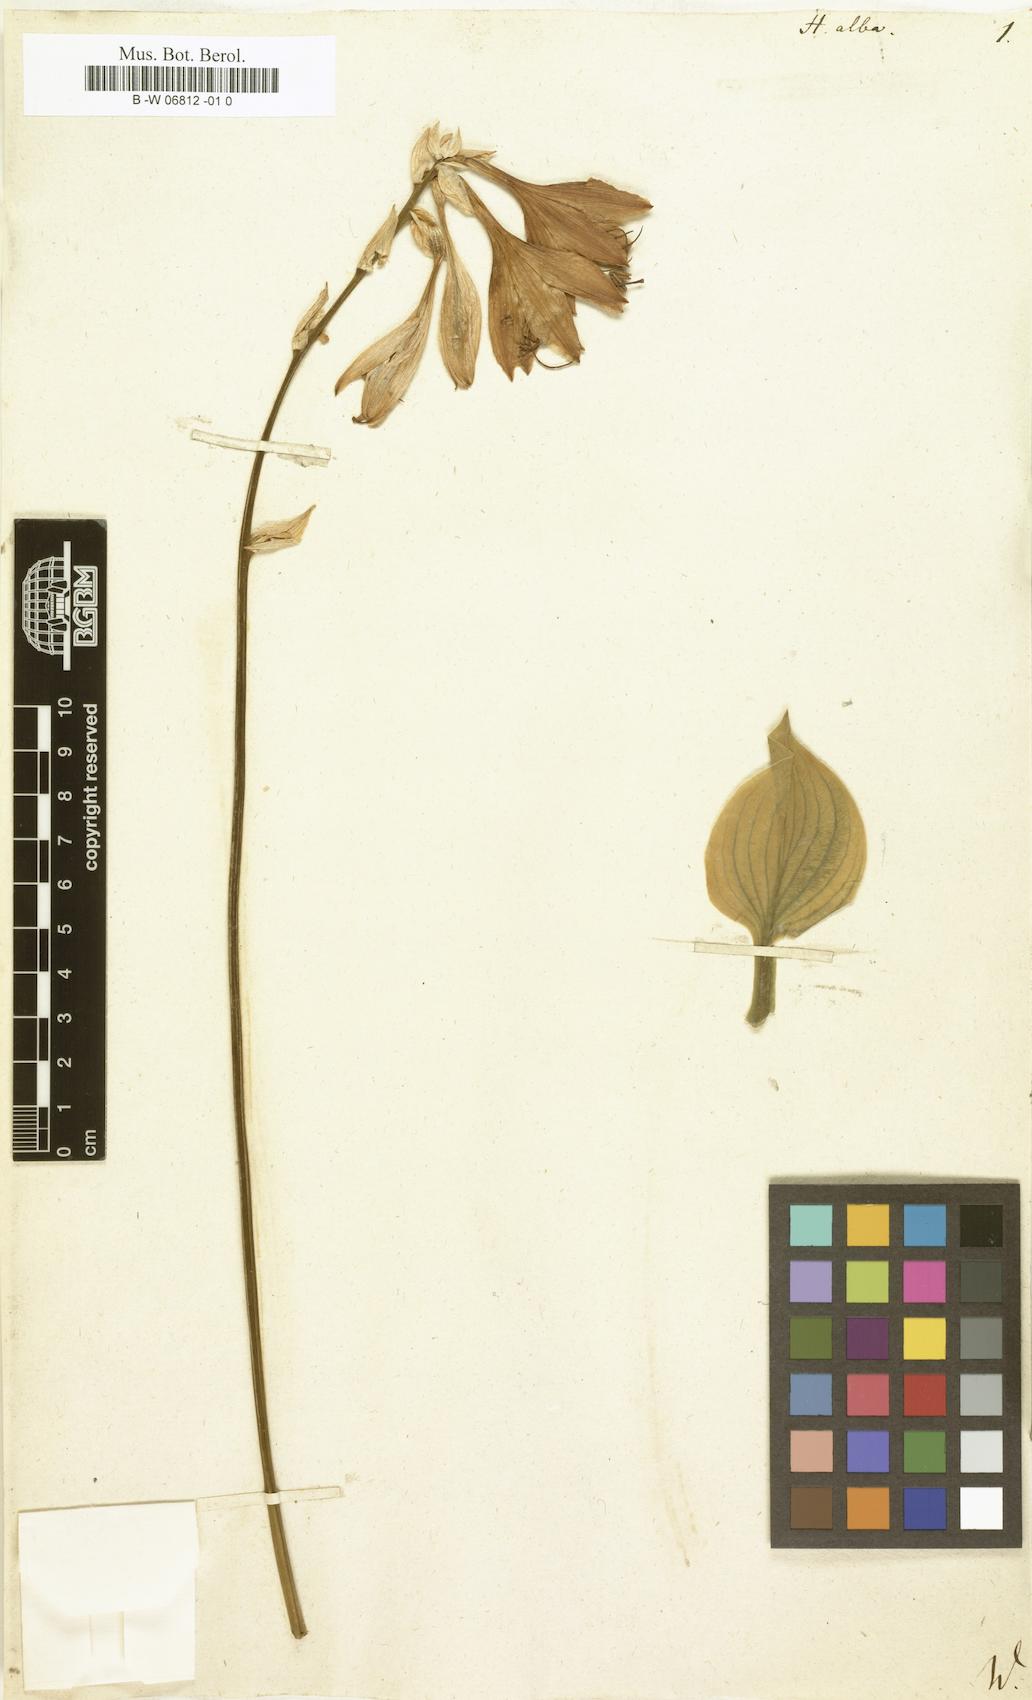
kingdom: Plantae
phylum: Tracheophyta
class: Liliopsida
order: Asparagales
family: Asparagaceae
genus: Hosta
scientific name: Hosta plantaginea
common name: August-lily
